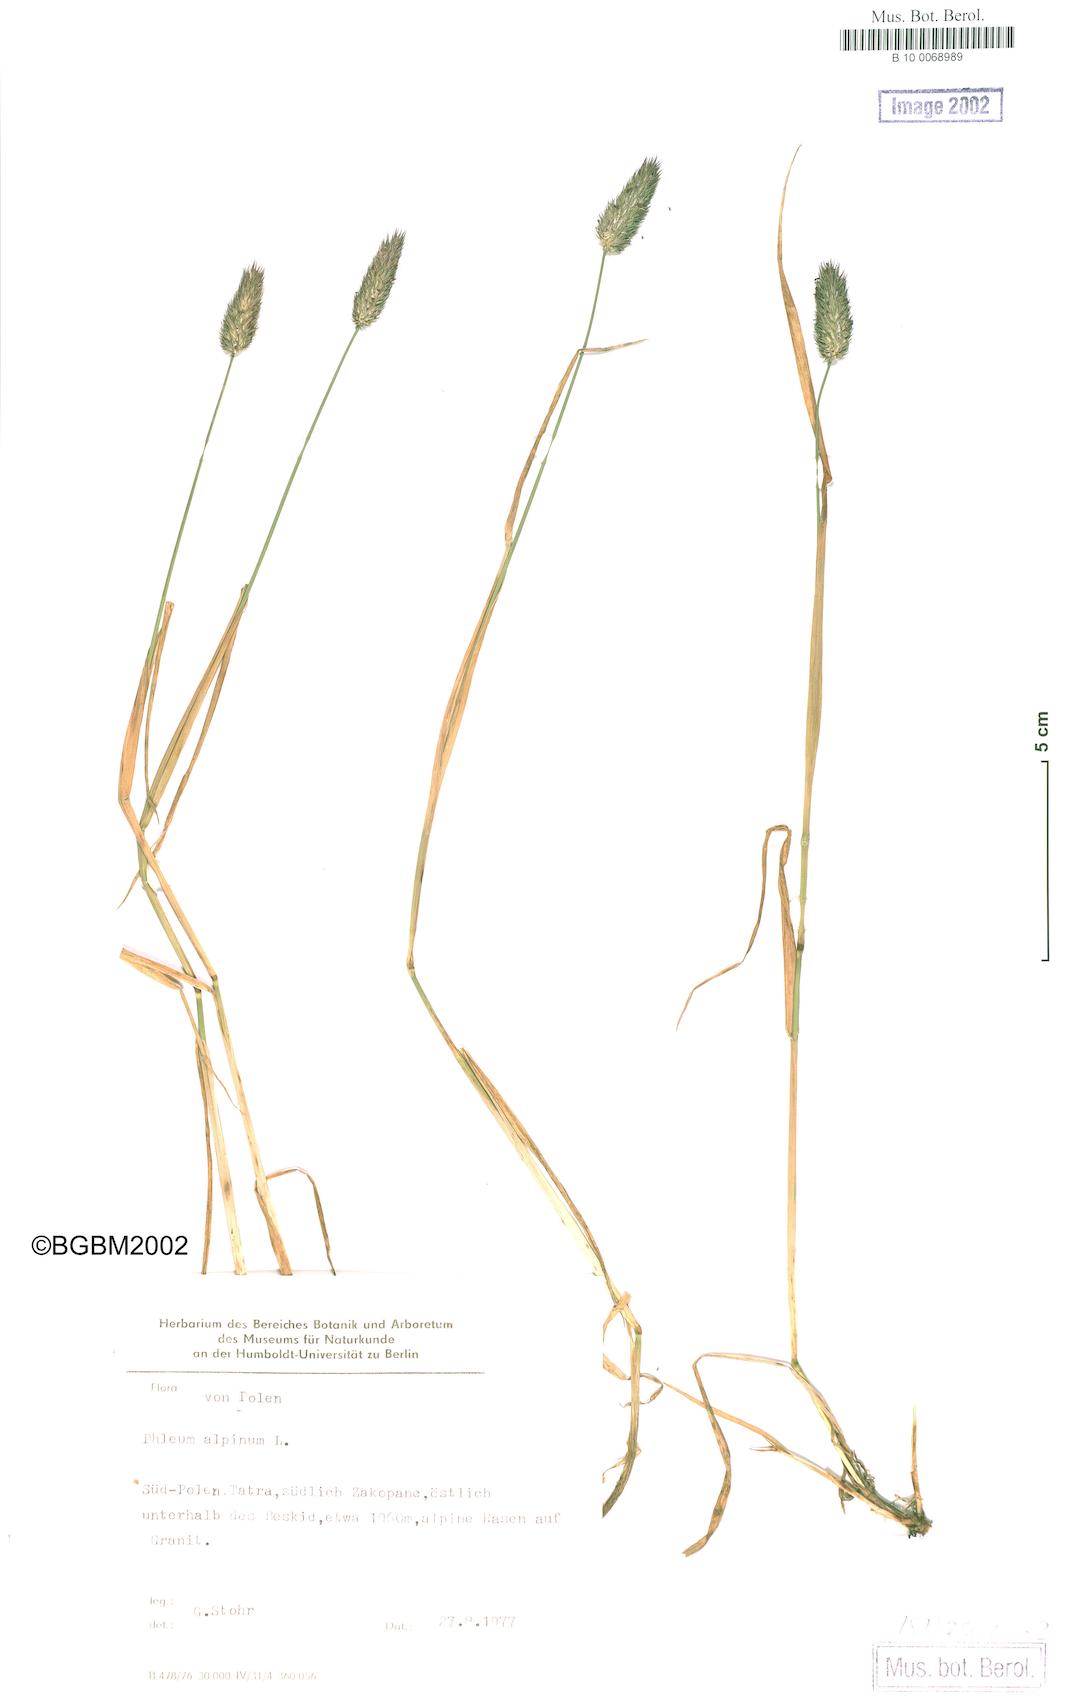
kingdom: Plantae
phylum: Tracheophyta
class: Liliopsida
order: Poales
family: Poaceae
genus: Phleum
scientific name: Phleum alpinum
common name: Alpine cat's-tail
